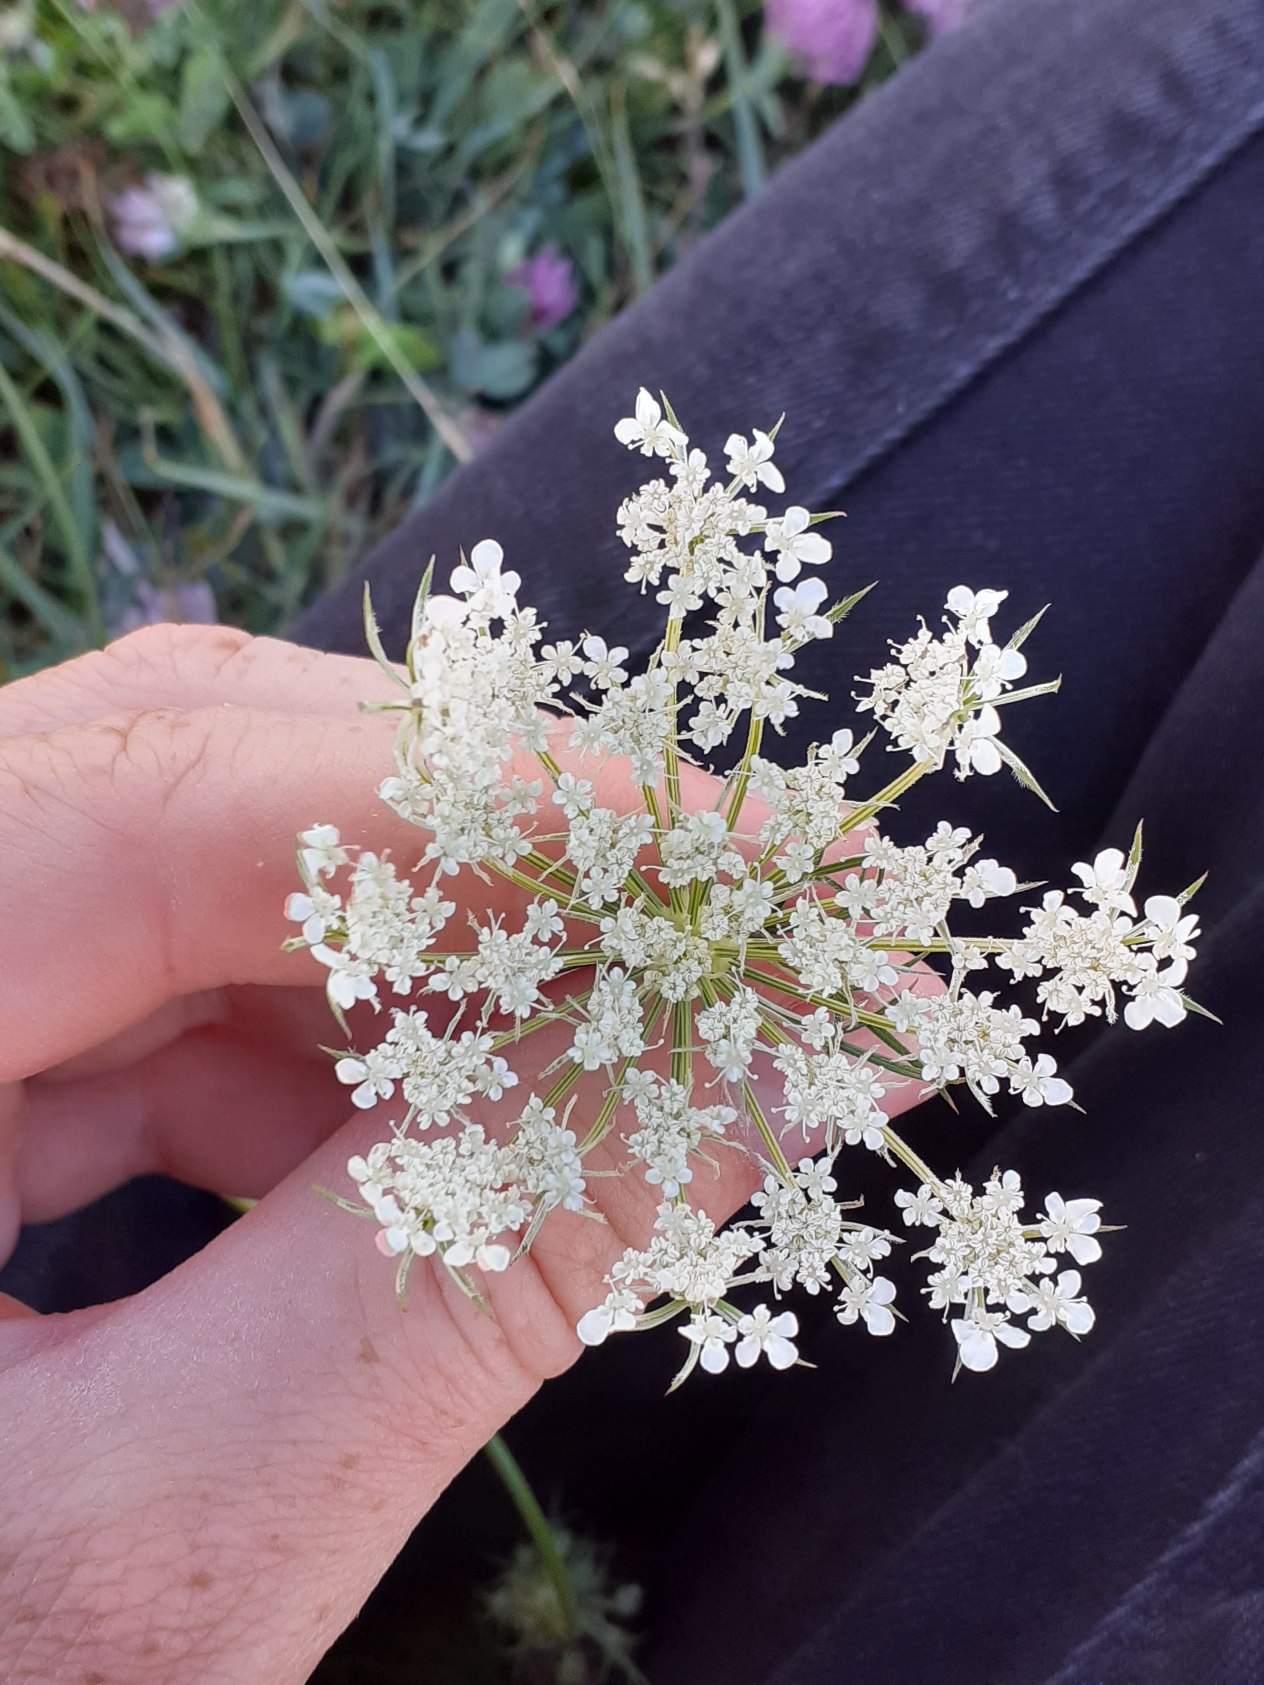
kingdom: Plantae
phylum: Tracheophyta
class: Magnoliopsida
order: Apiales
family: Apiaceae
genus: Daucus
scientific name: Daucus carota
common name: Vild gulerod
